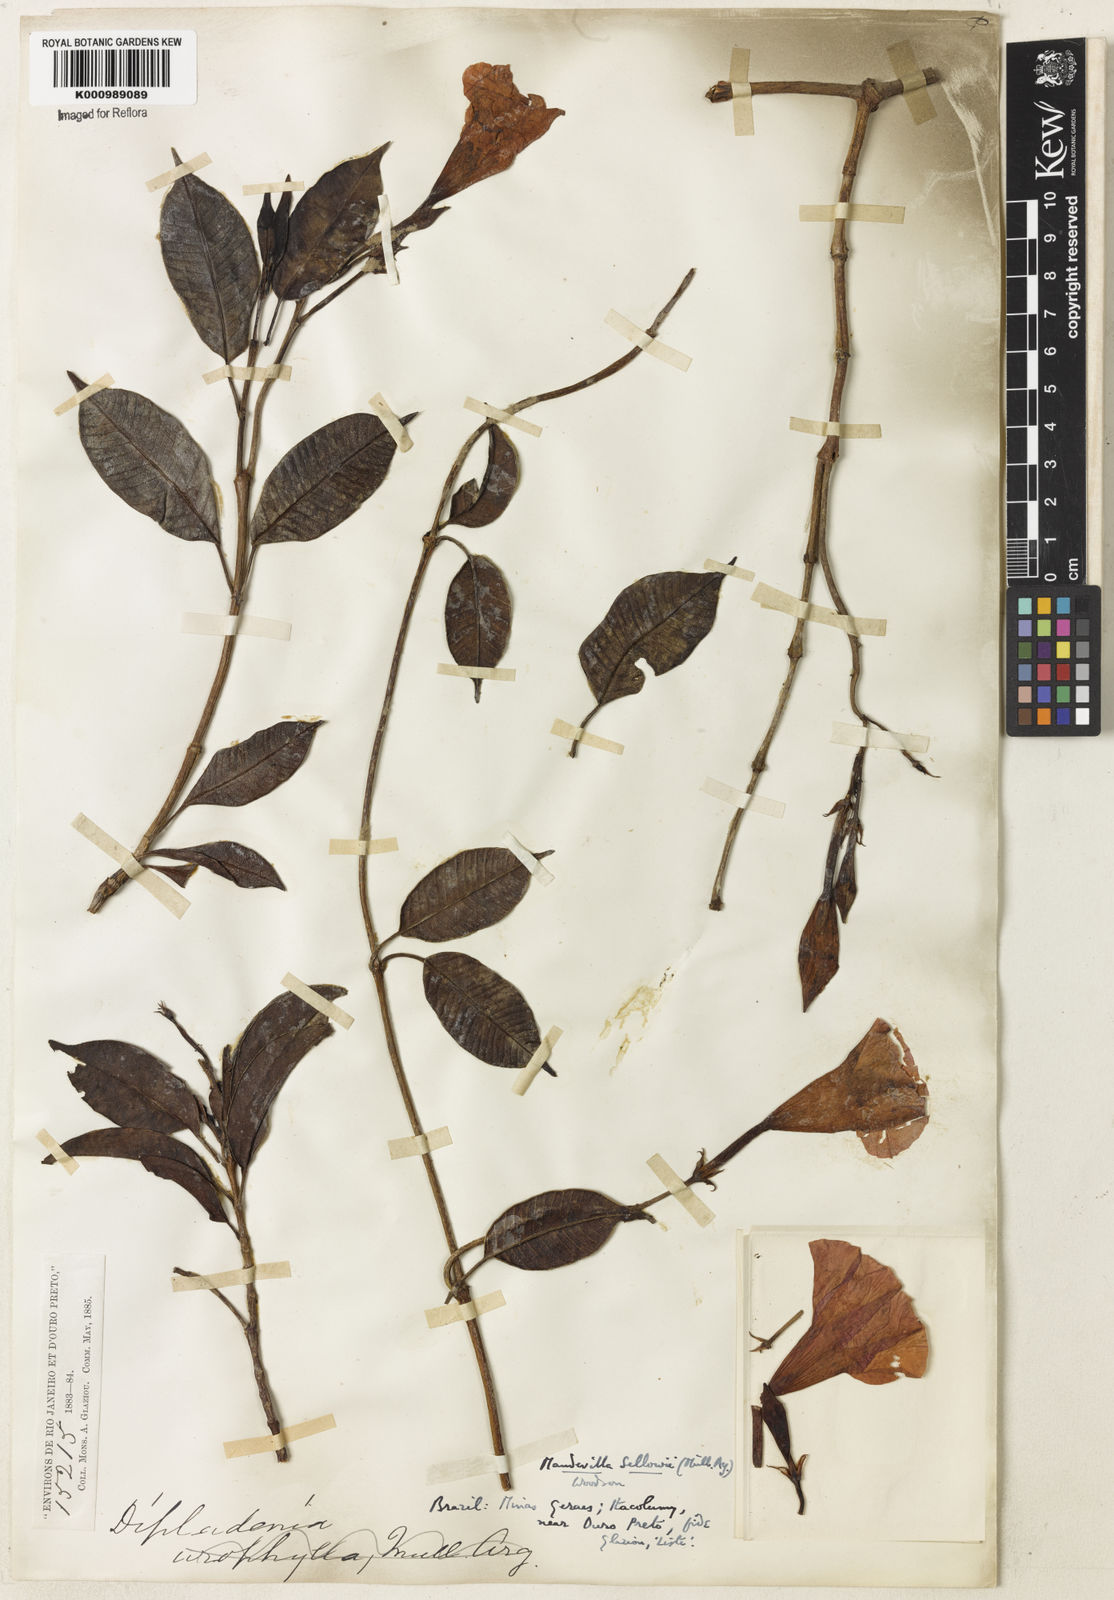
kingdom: Plantae
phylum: Tracheophyta
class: Magnoliopsida
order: Gentianales
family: Apocynaceae
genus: Mandevilla
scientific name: Mandevilla
